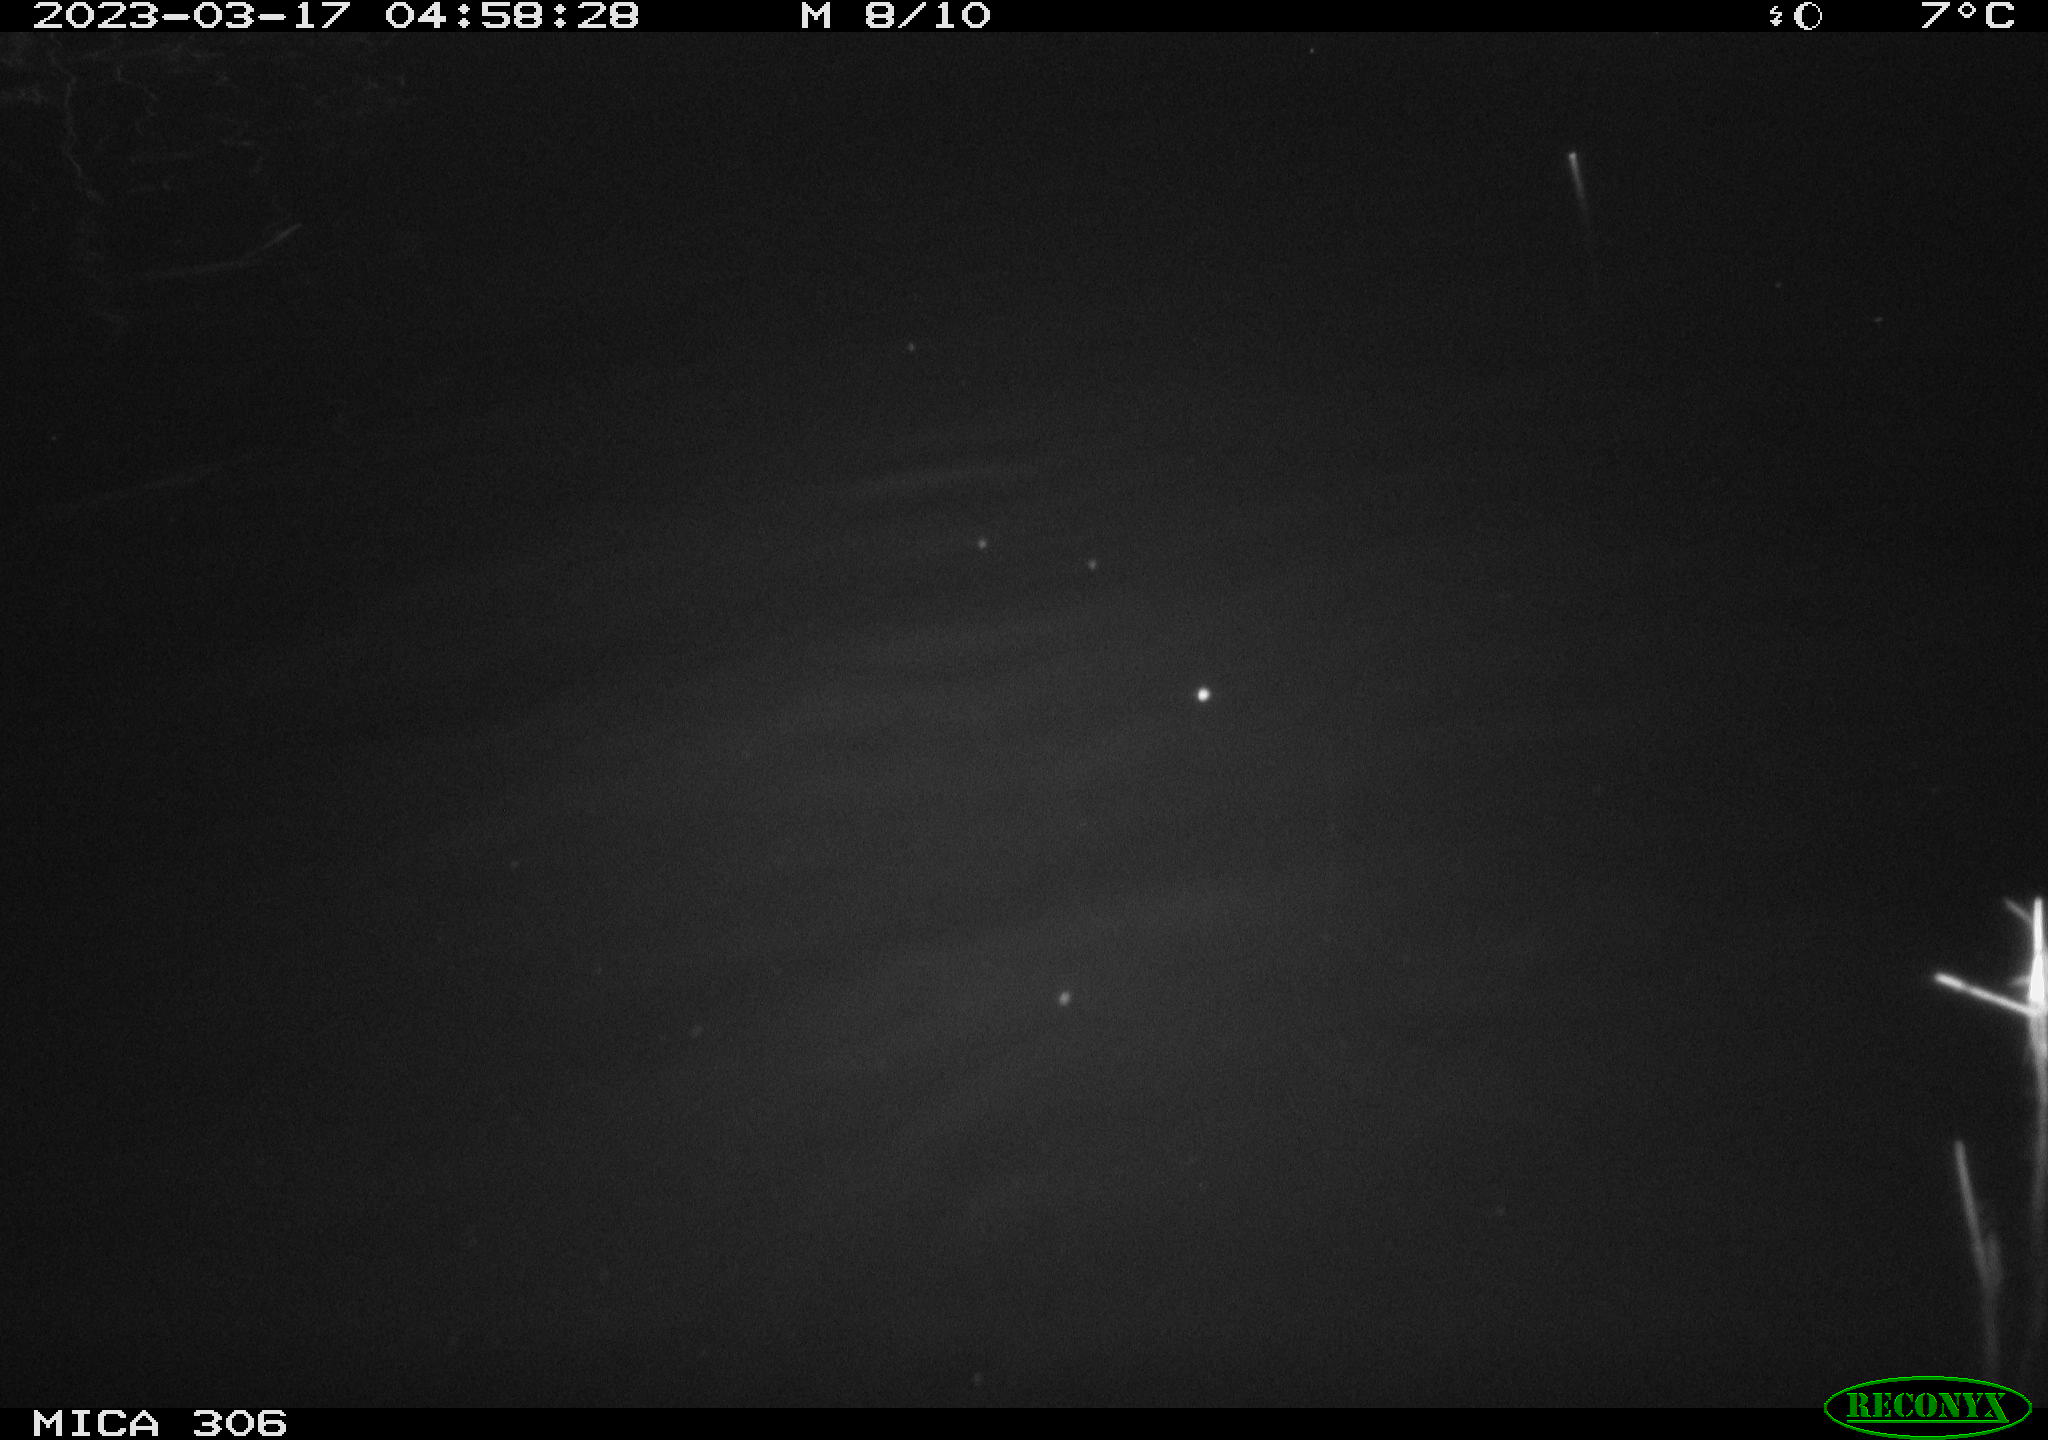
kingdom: Animalia
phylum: Chordata
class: Mammalia
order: Rodentia
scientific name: Rodentia
